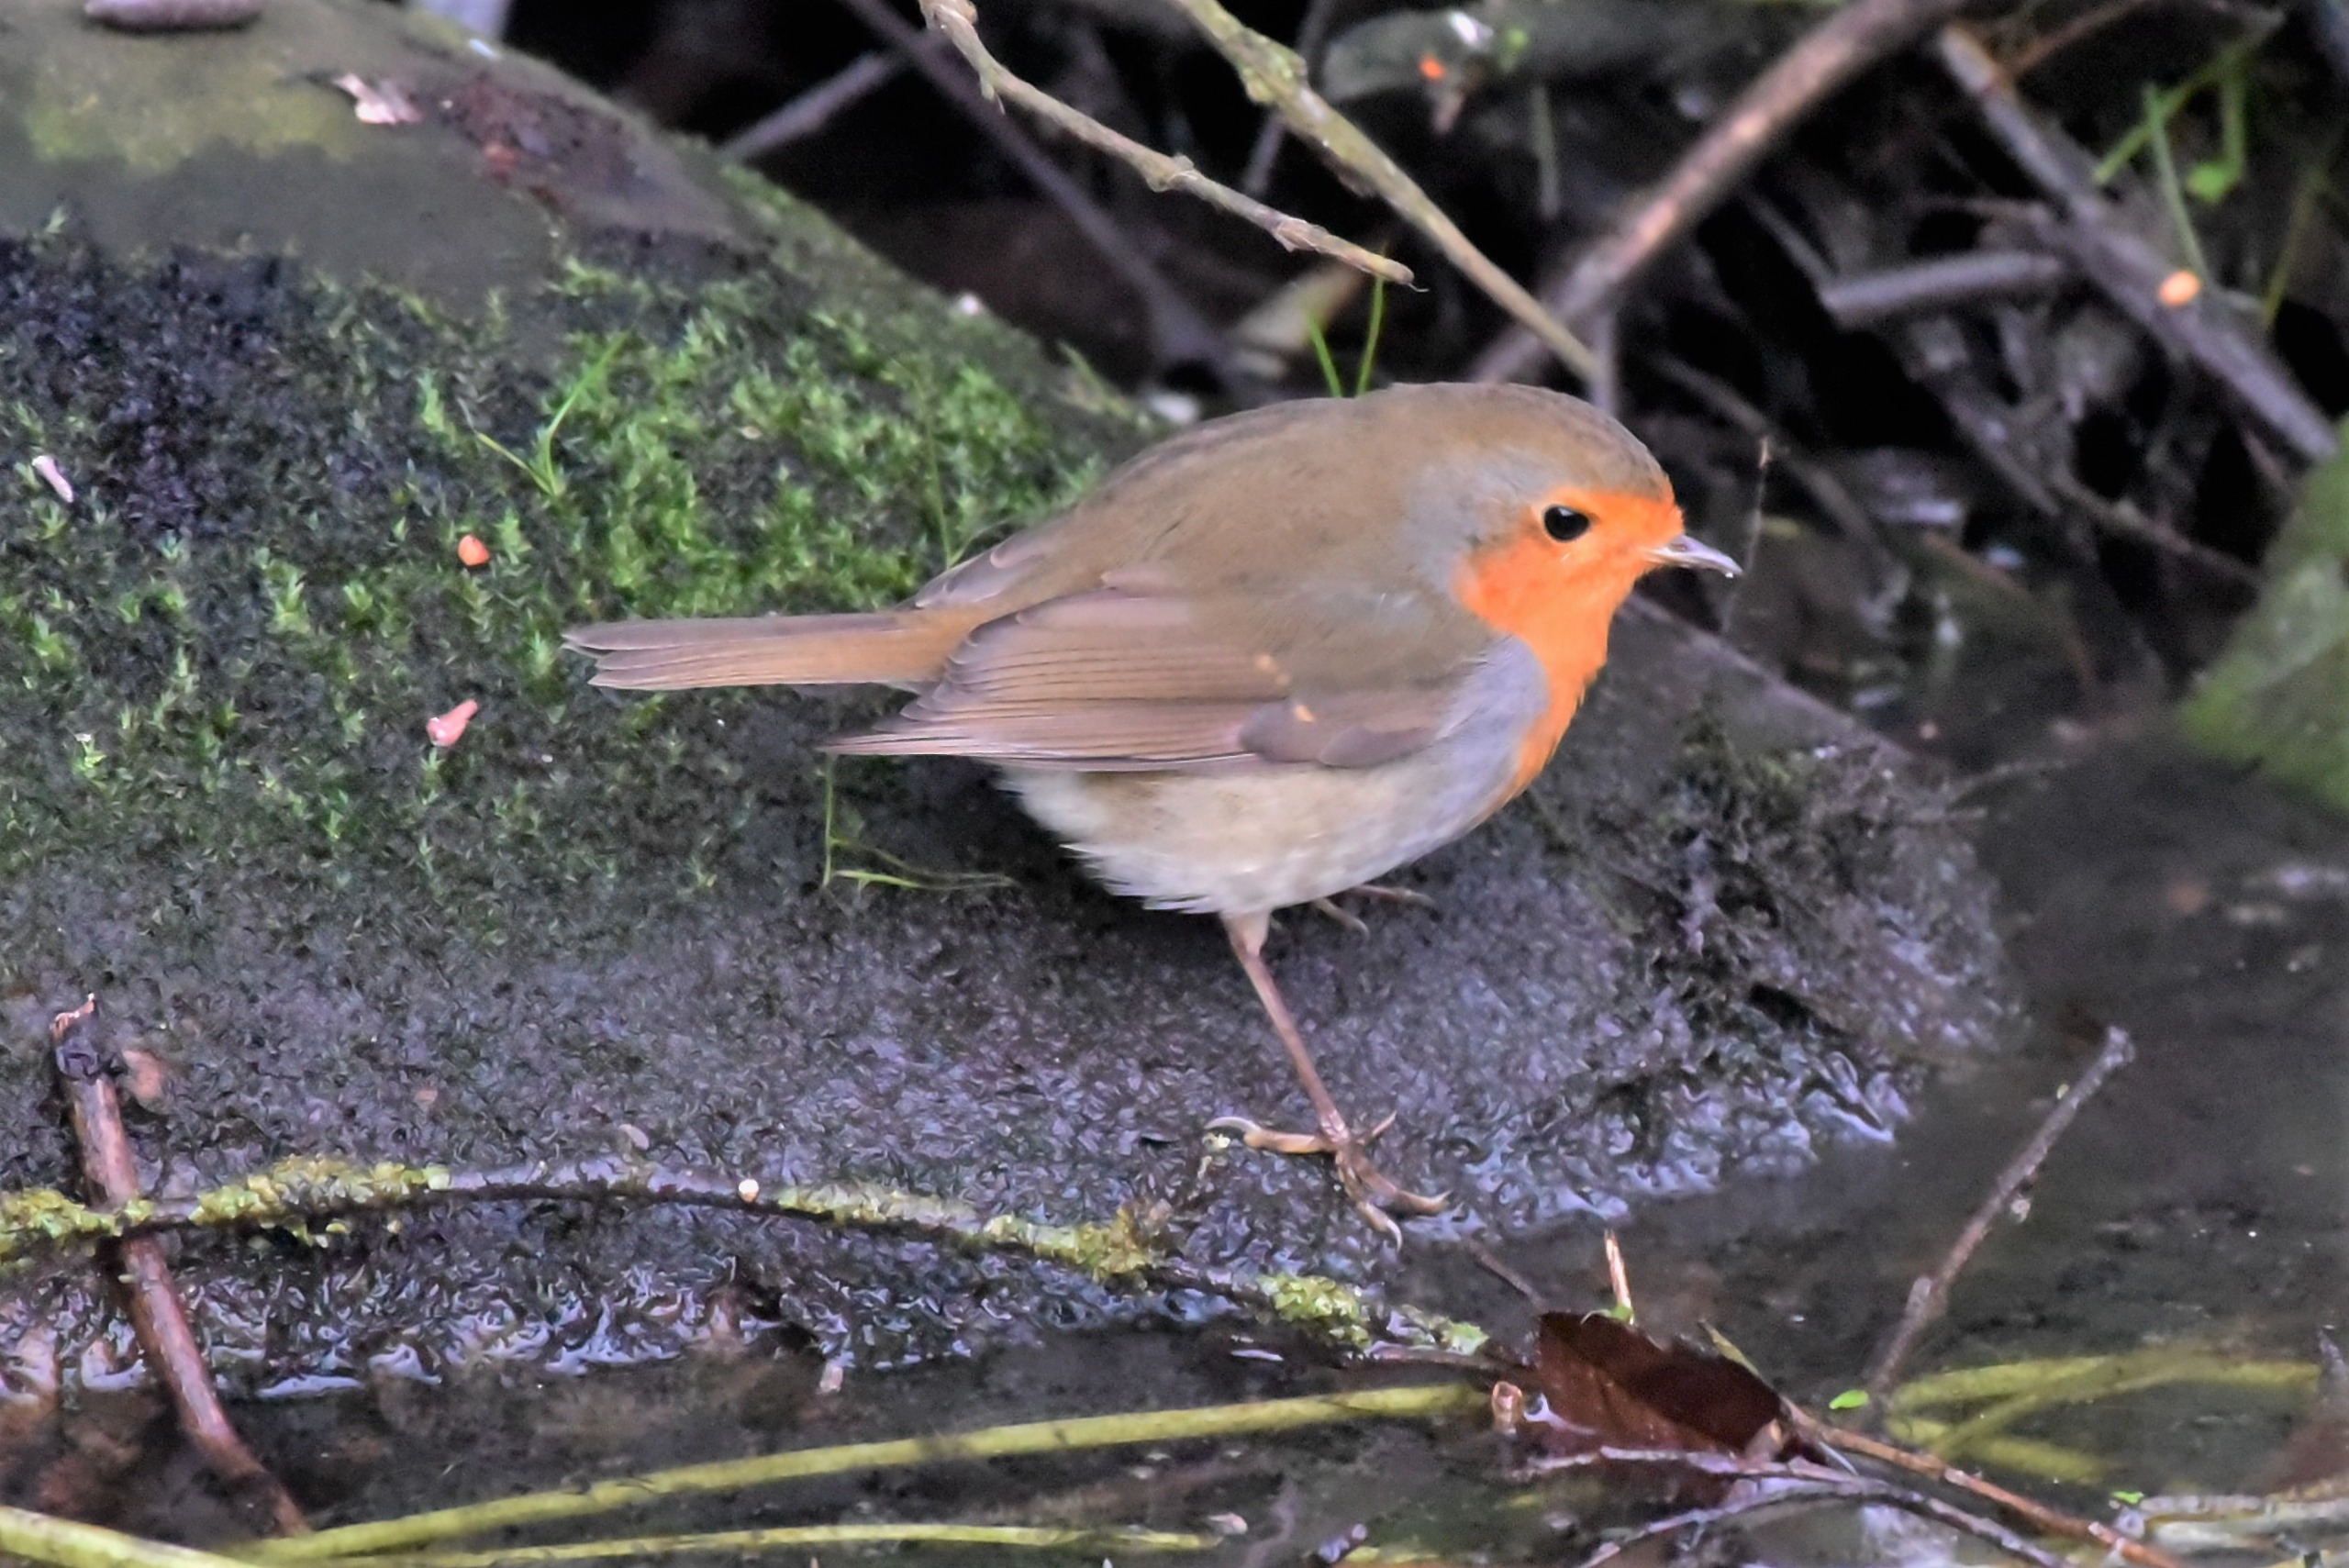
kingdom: Animalia
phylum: Chordata
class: Aves
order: Passeriformes
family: Muscicapidae
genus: Erithacus
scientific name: Erithacus rubecula
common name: Rødhals/rødkælk
